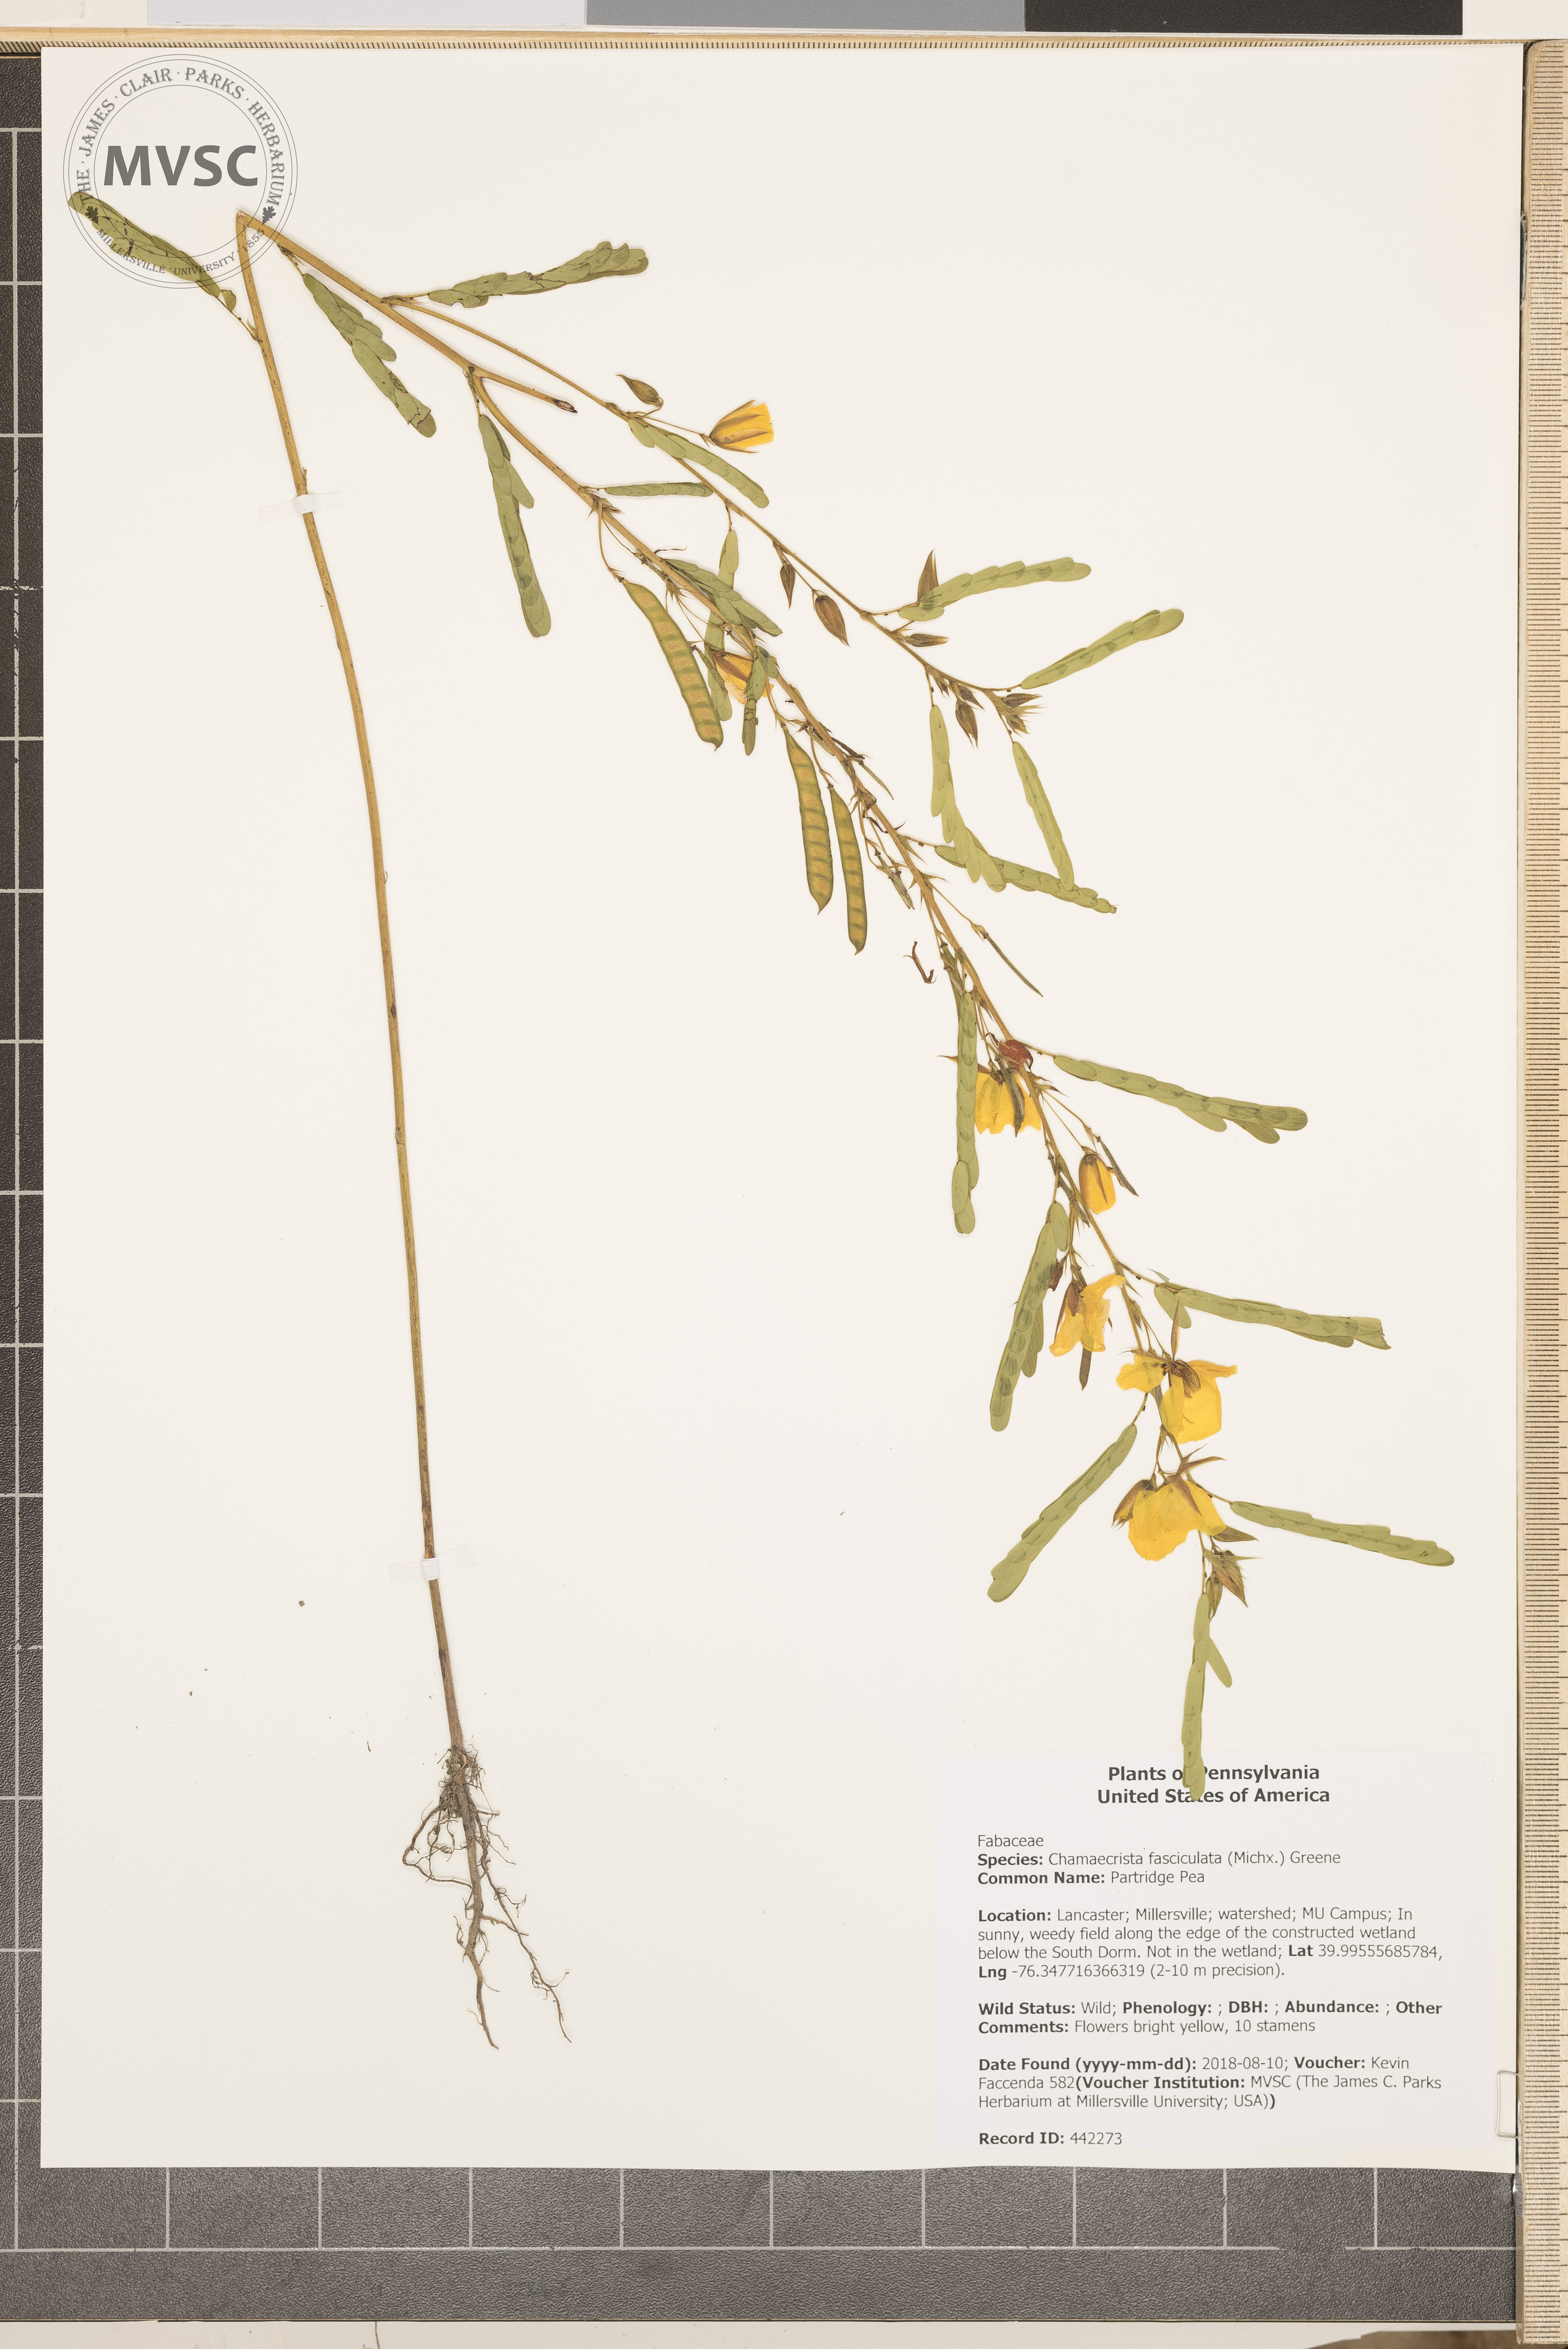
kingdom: Plantae
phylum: Tracheophyta
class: Magnoliopsida
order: Fabales
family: Fabaceae
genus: Chamaecrista
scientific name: Chamaecrista fasciculata
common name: Partridge Pea
